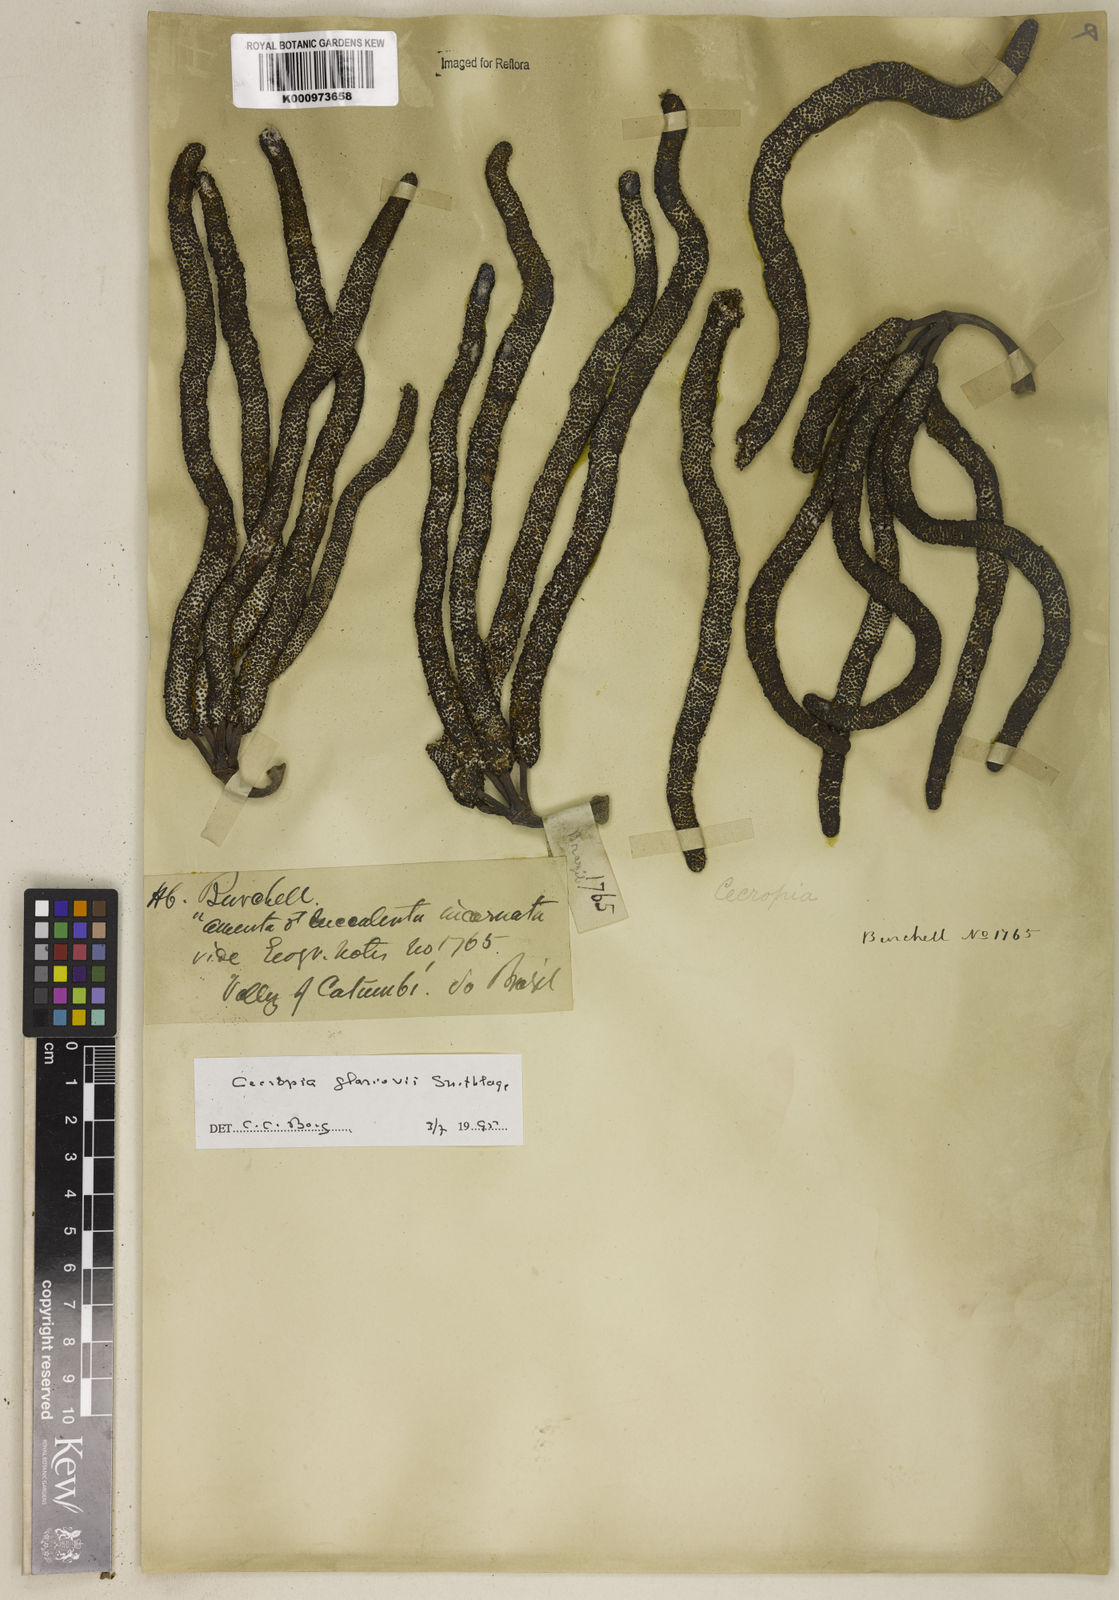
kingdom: Plantae
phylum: Tracheophyta
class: Magnoliopsida
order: Rosales
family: Urticaceae
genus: Cecropia
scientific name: Cecropia glaziovii
